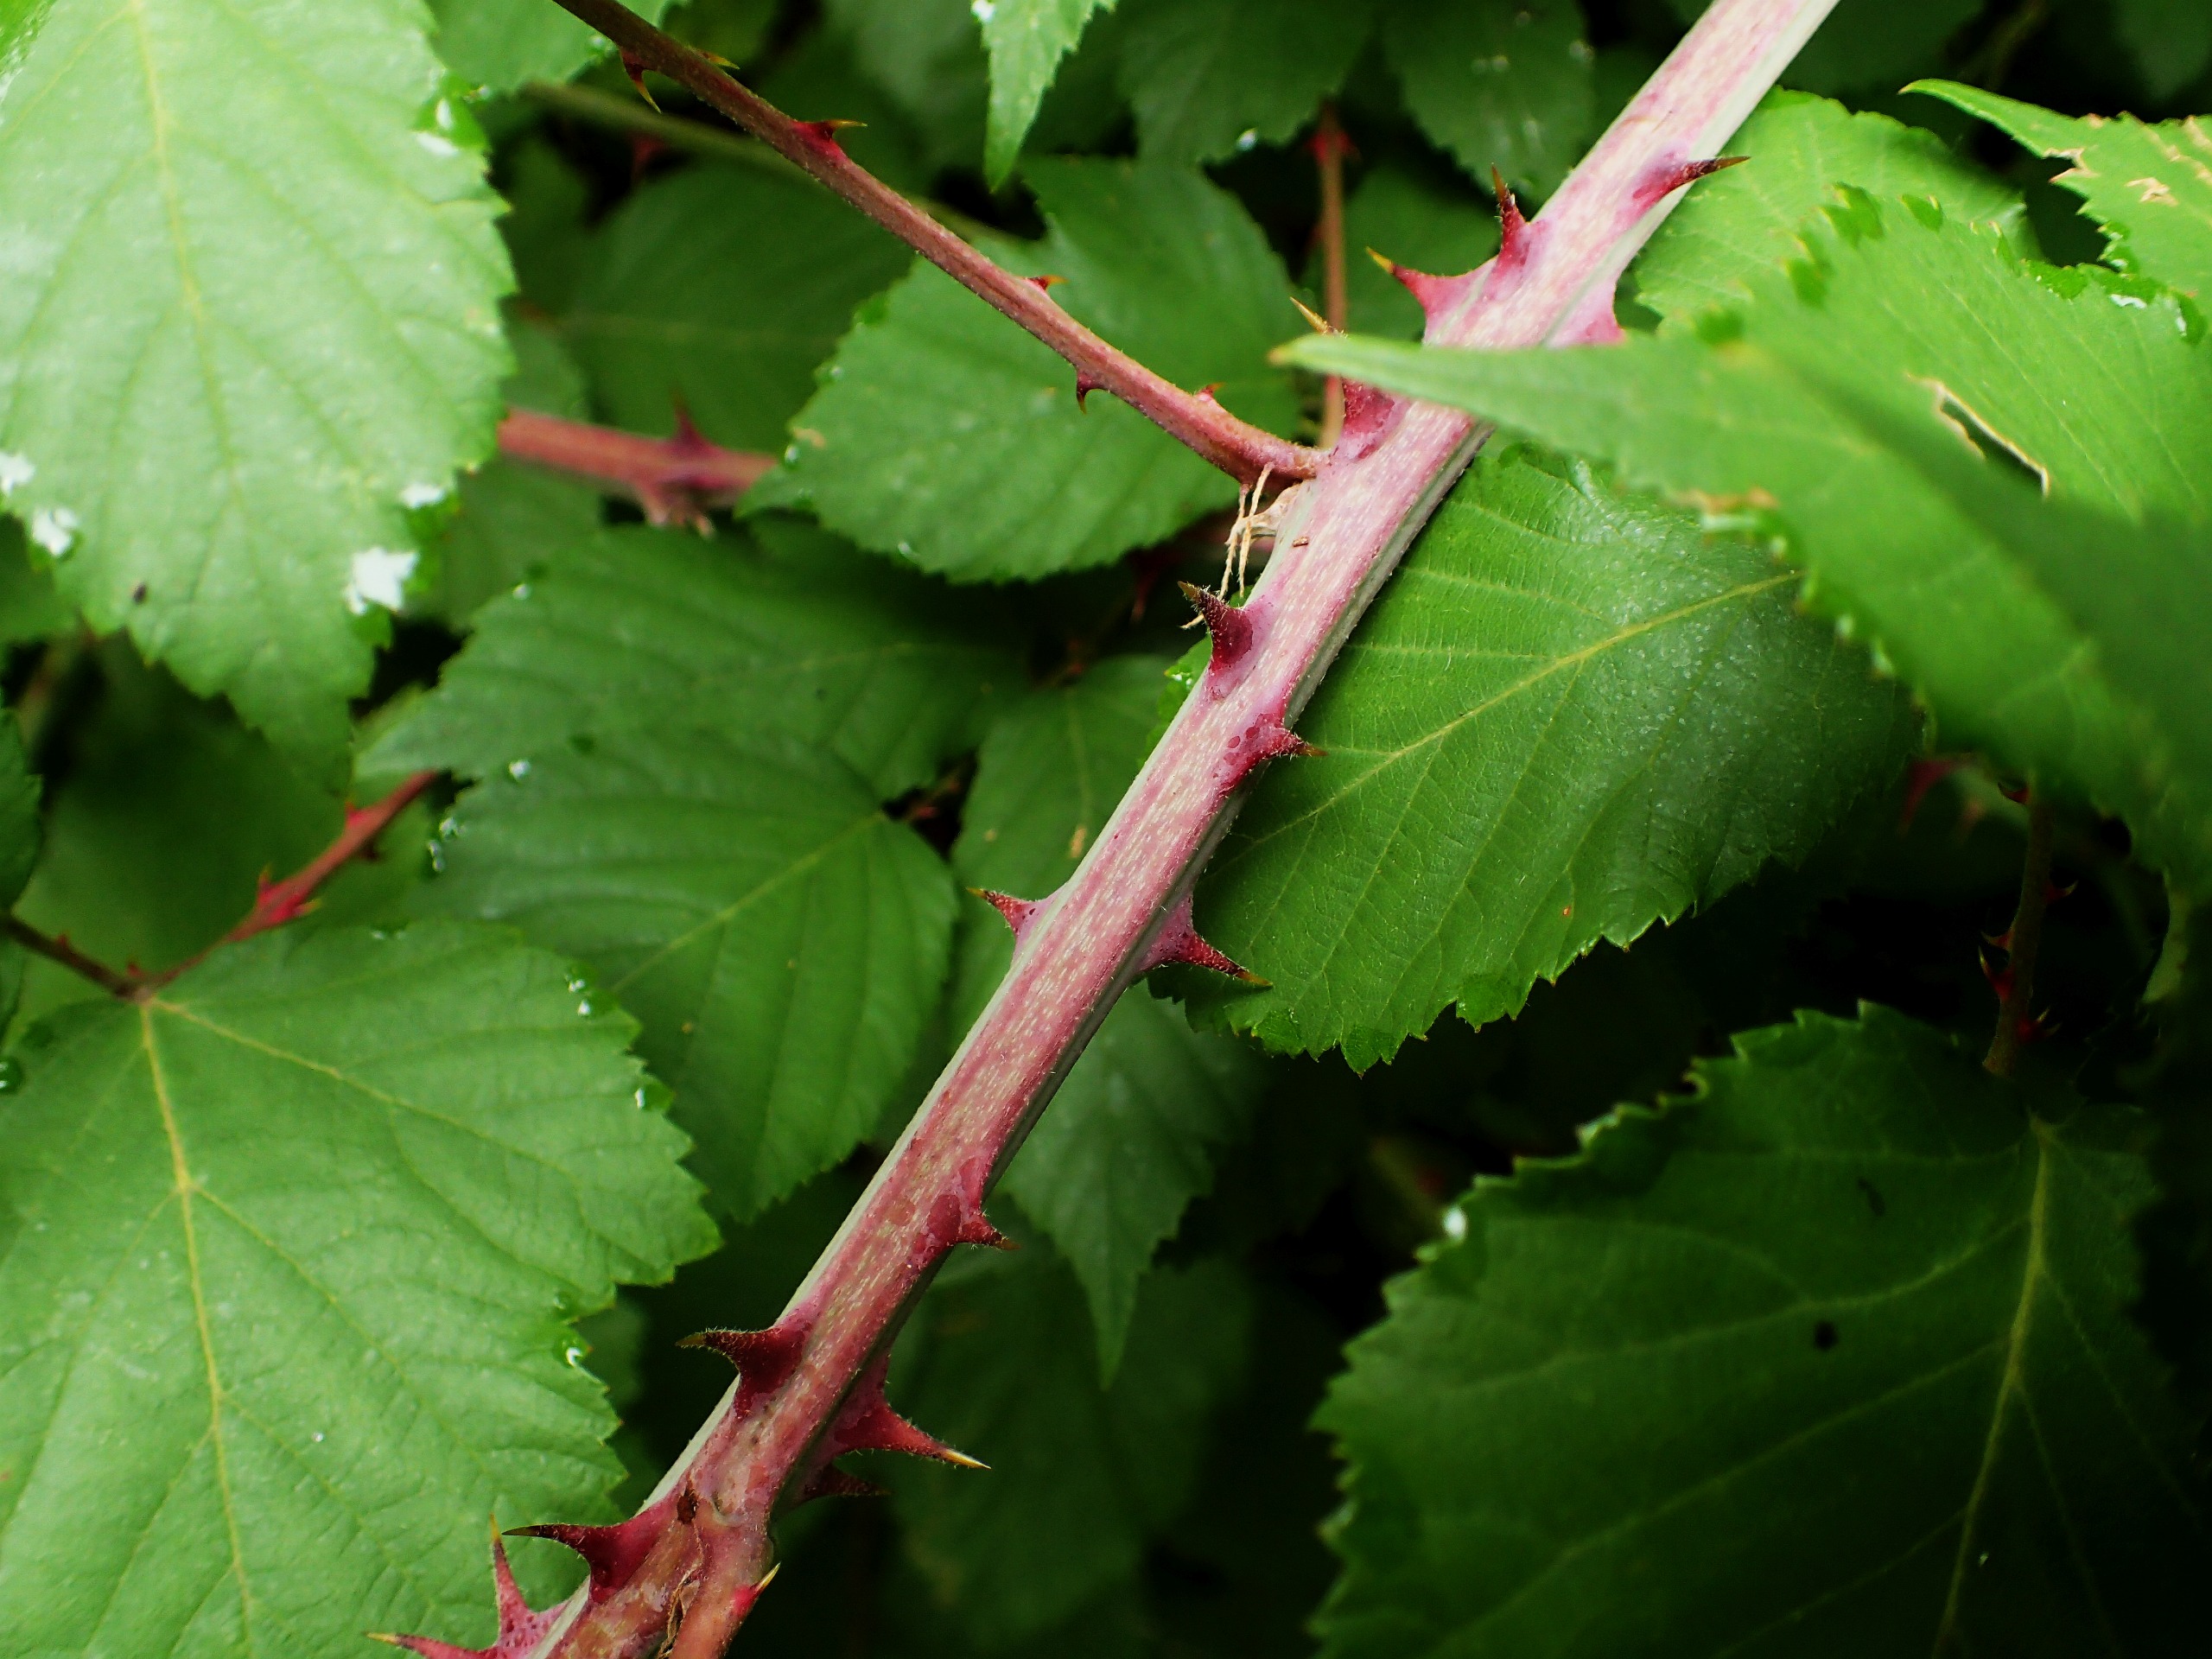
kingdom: Plantae
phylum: Tracheophyta
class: Magnoliopsida
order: Rosales
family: Rosaceae
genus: Rubus
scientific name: Rubus ulmifolius
